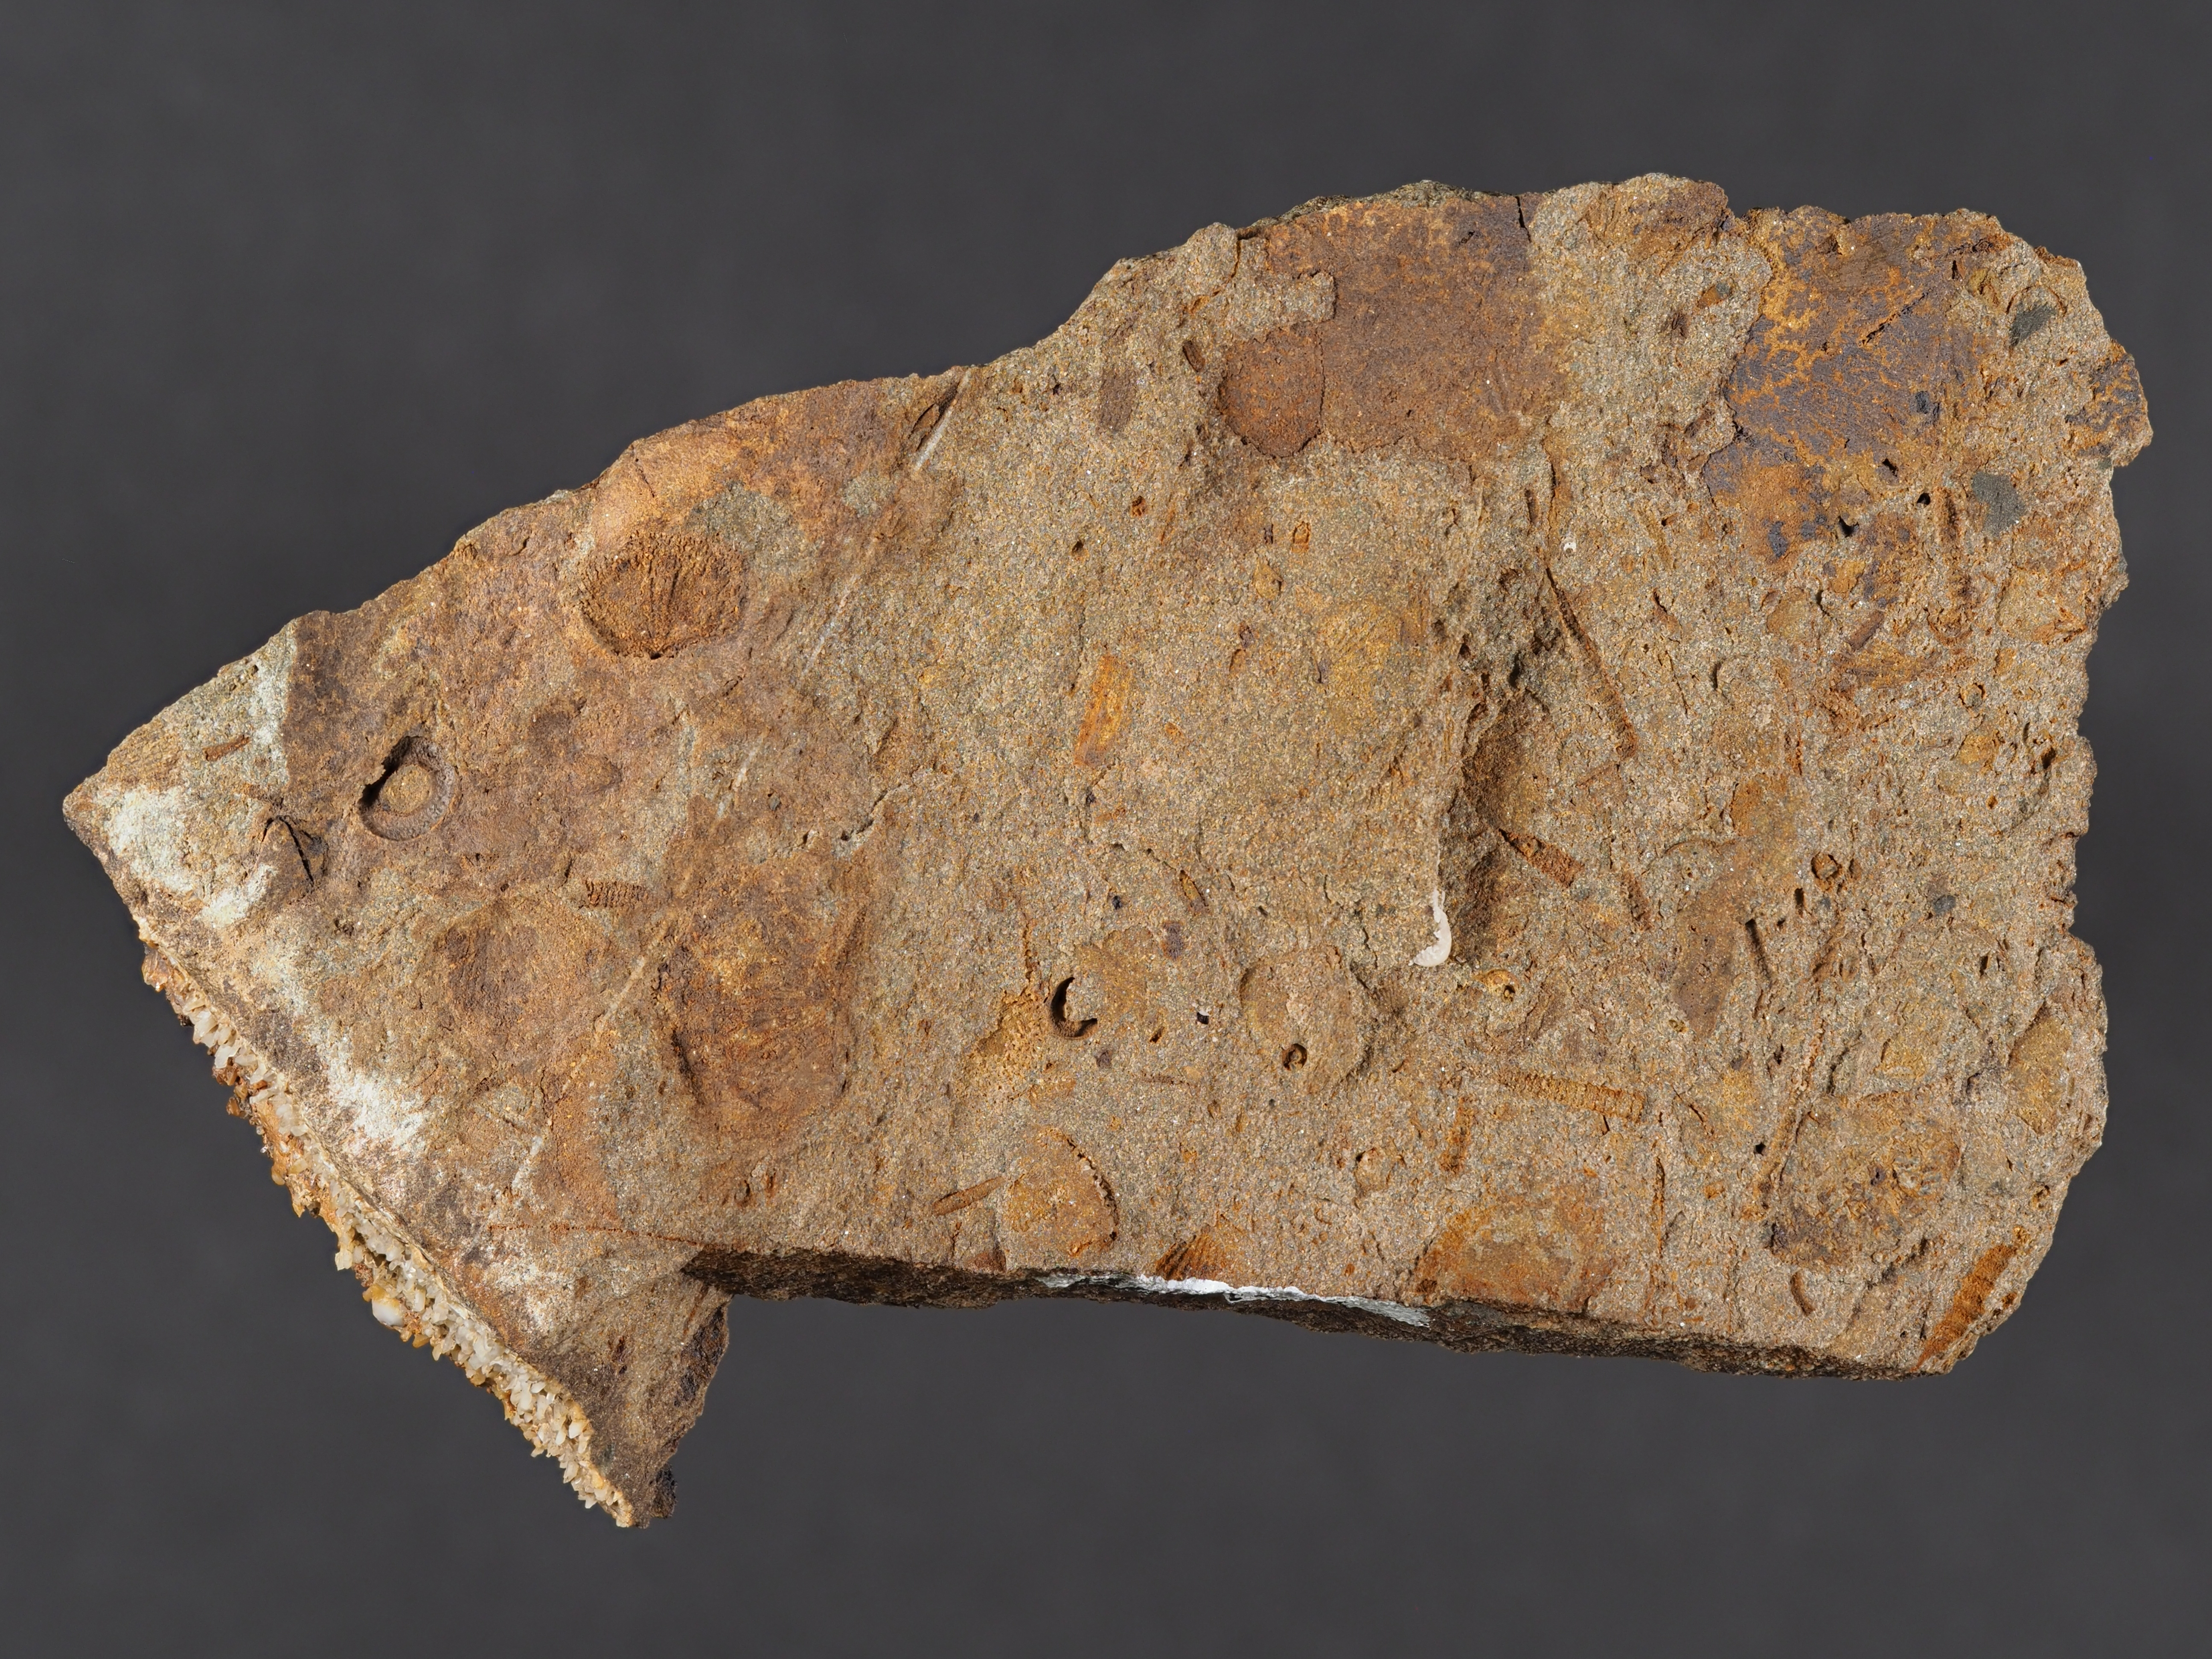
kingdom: Animalia
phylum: Brachiopoda
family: Leptostrophiidae
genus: Leptostrophiella
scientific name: Leptostrophiella
